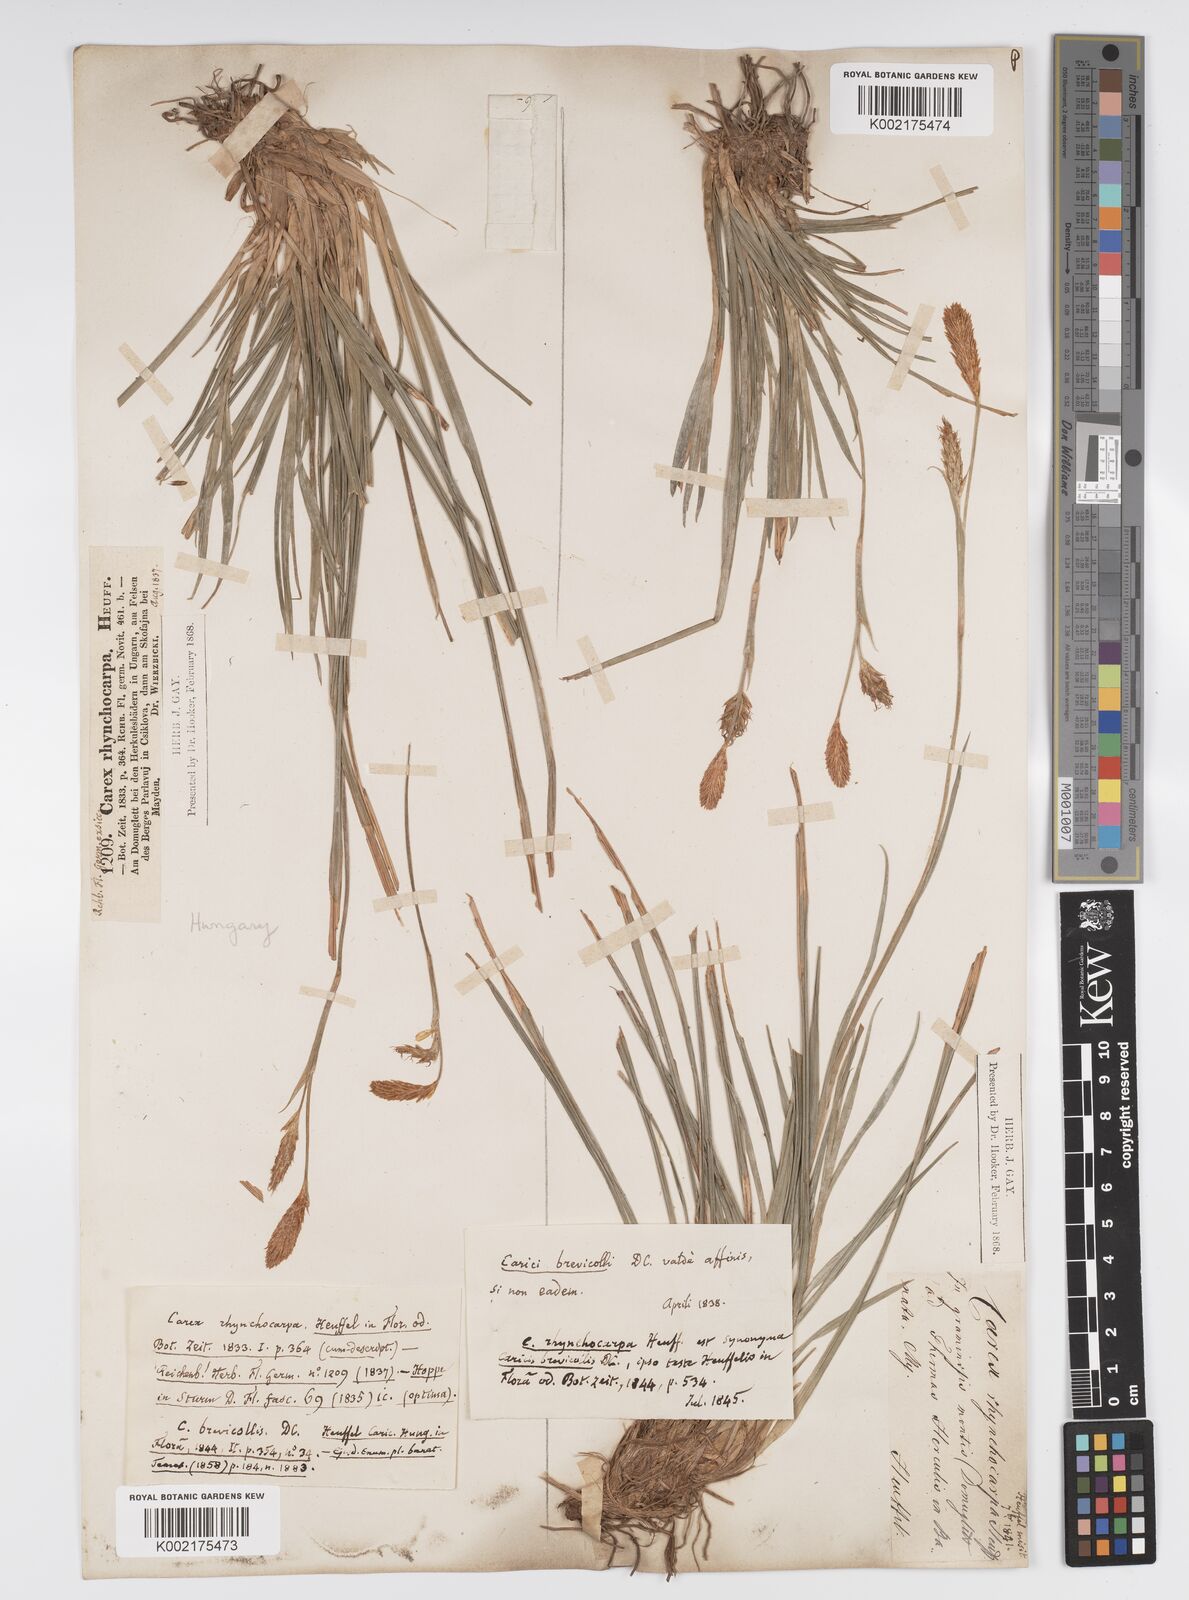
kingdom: Plantae
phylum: Tracheophyta
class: Liliopsida
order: Poales
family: Cyperaceae
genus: Carex
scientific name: Carex brevicollis
